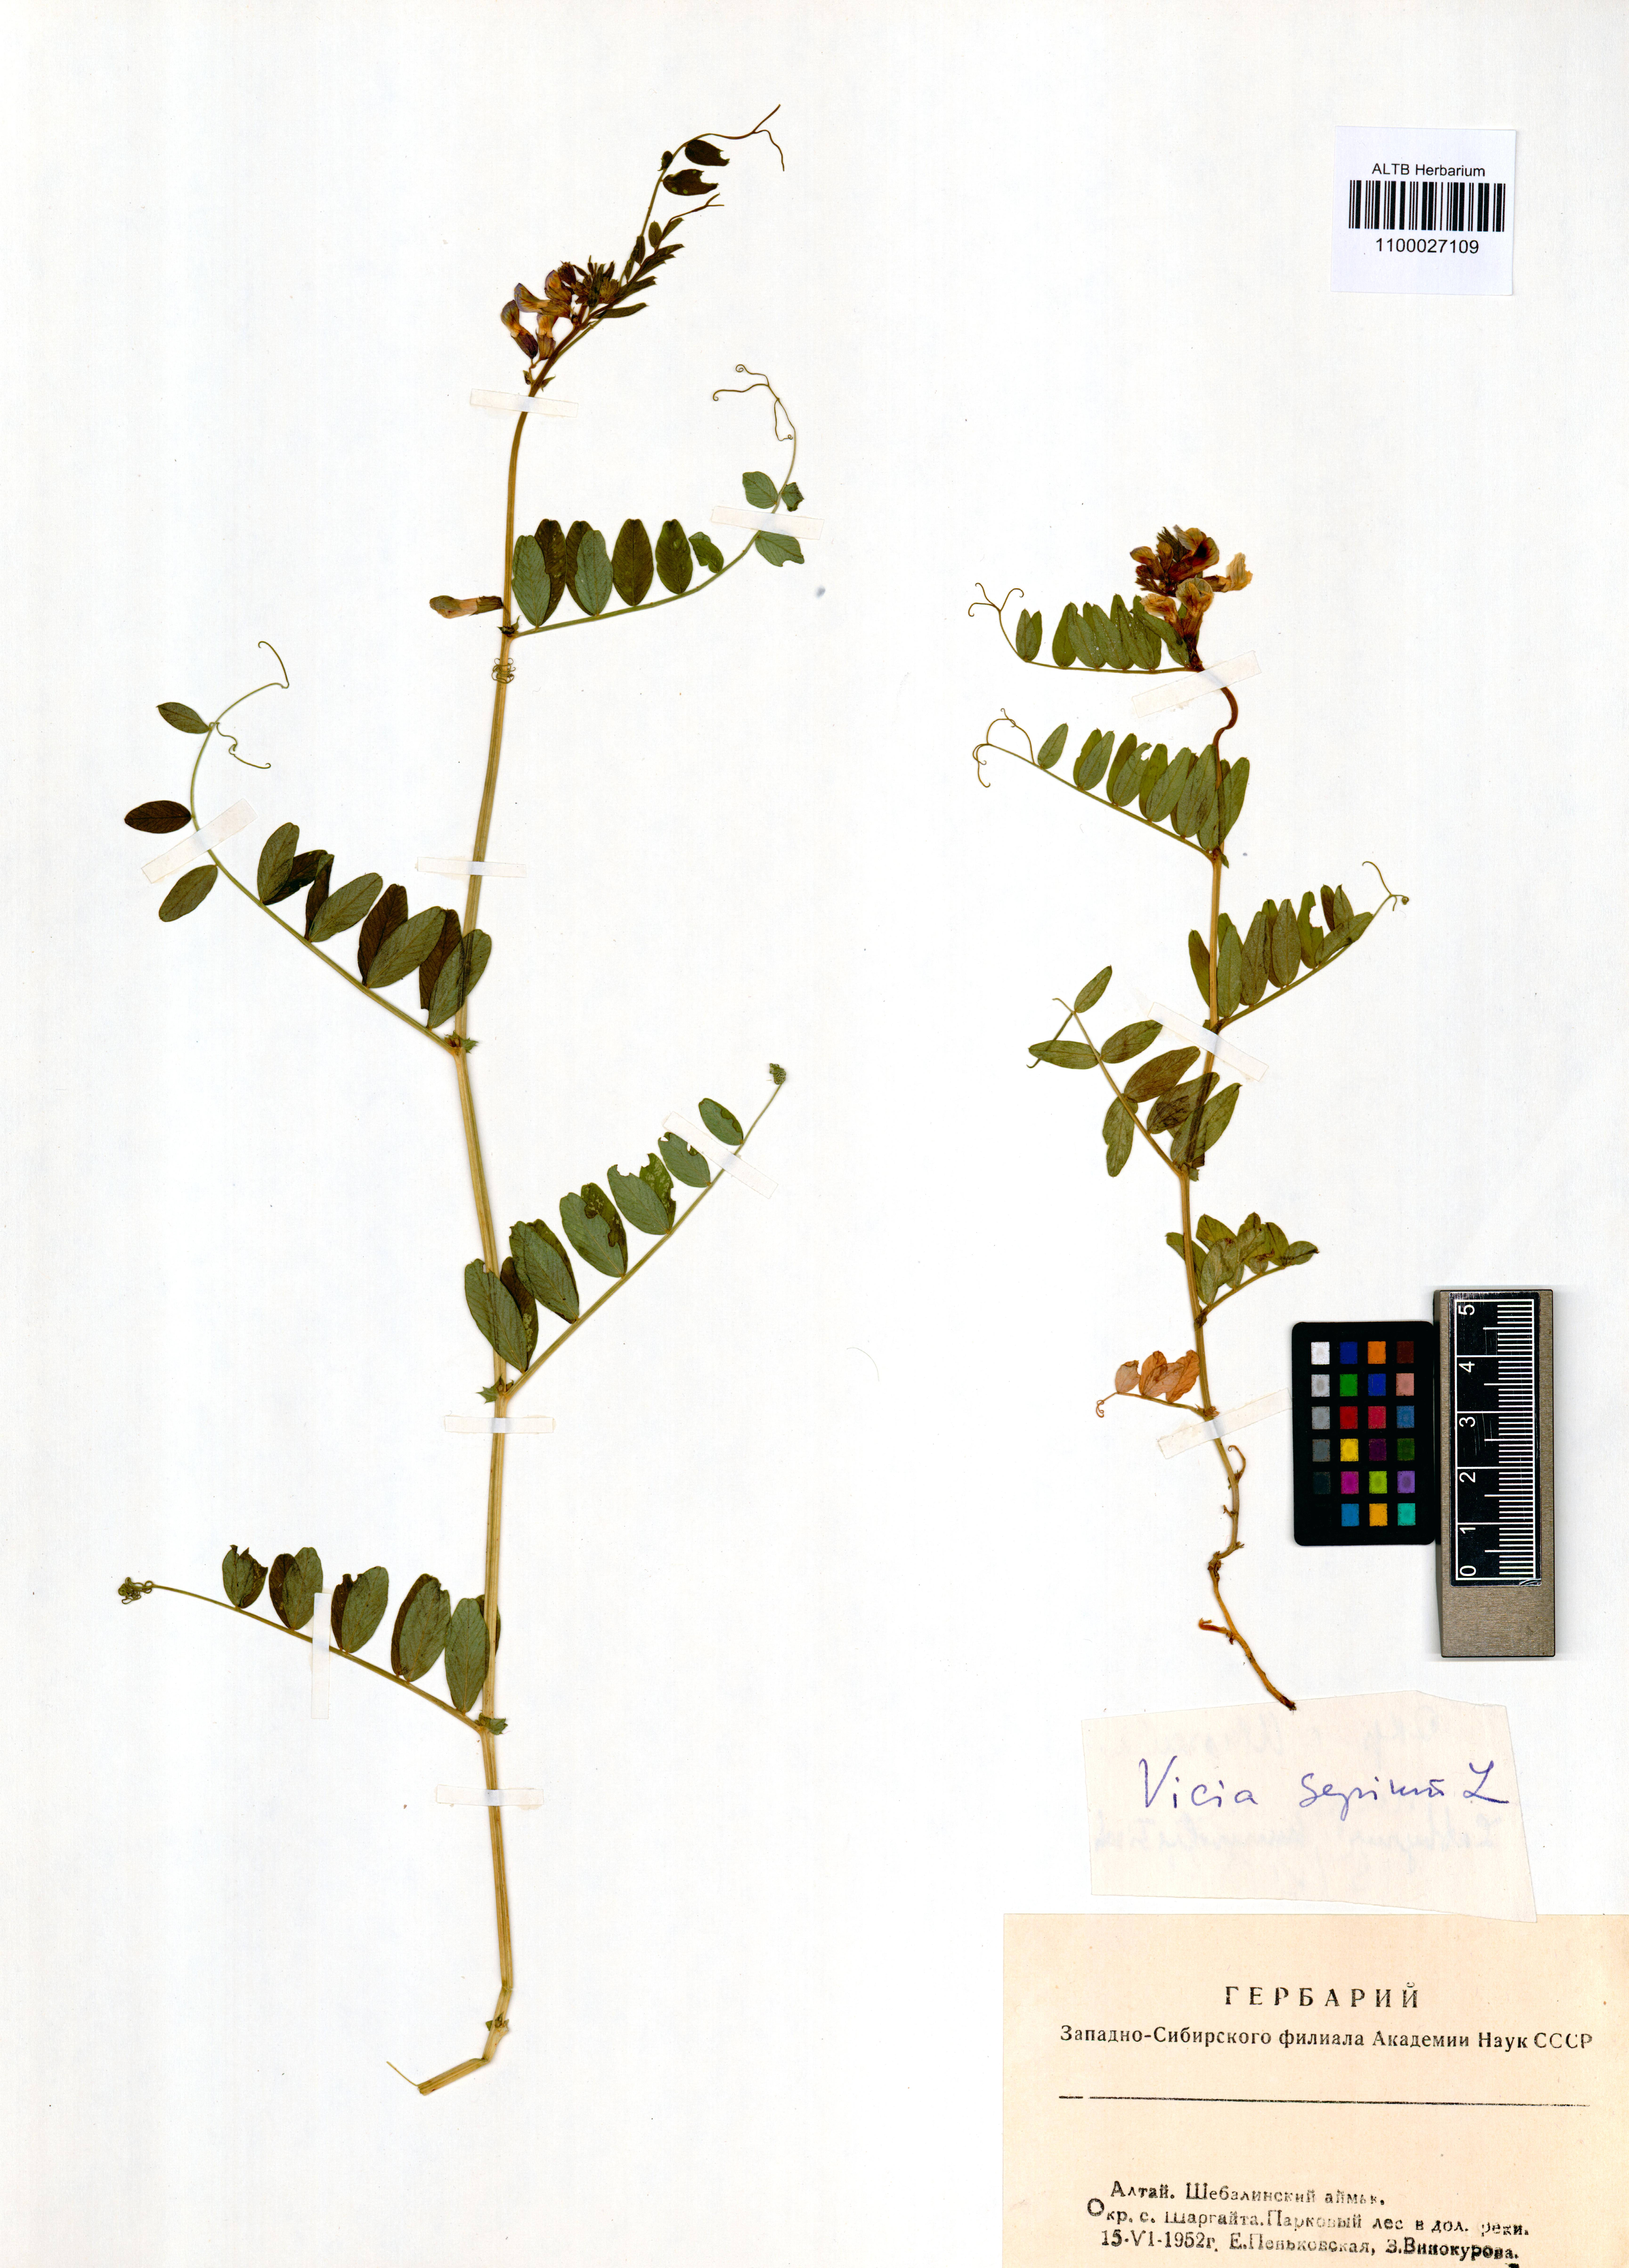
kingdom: Plantae
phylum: Tracheophyta
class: Magnoliopsida
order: Fabales
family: Fabaceae
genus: Vicia
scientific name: Vicia sepium
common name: Bush vetch
